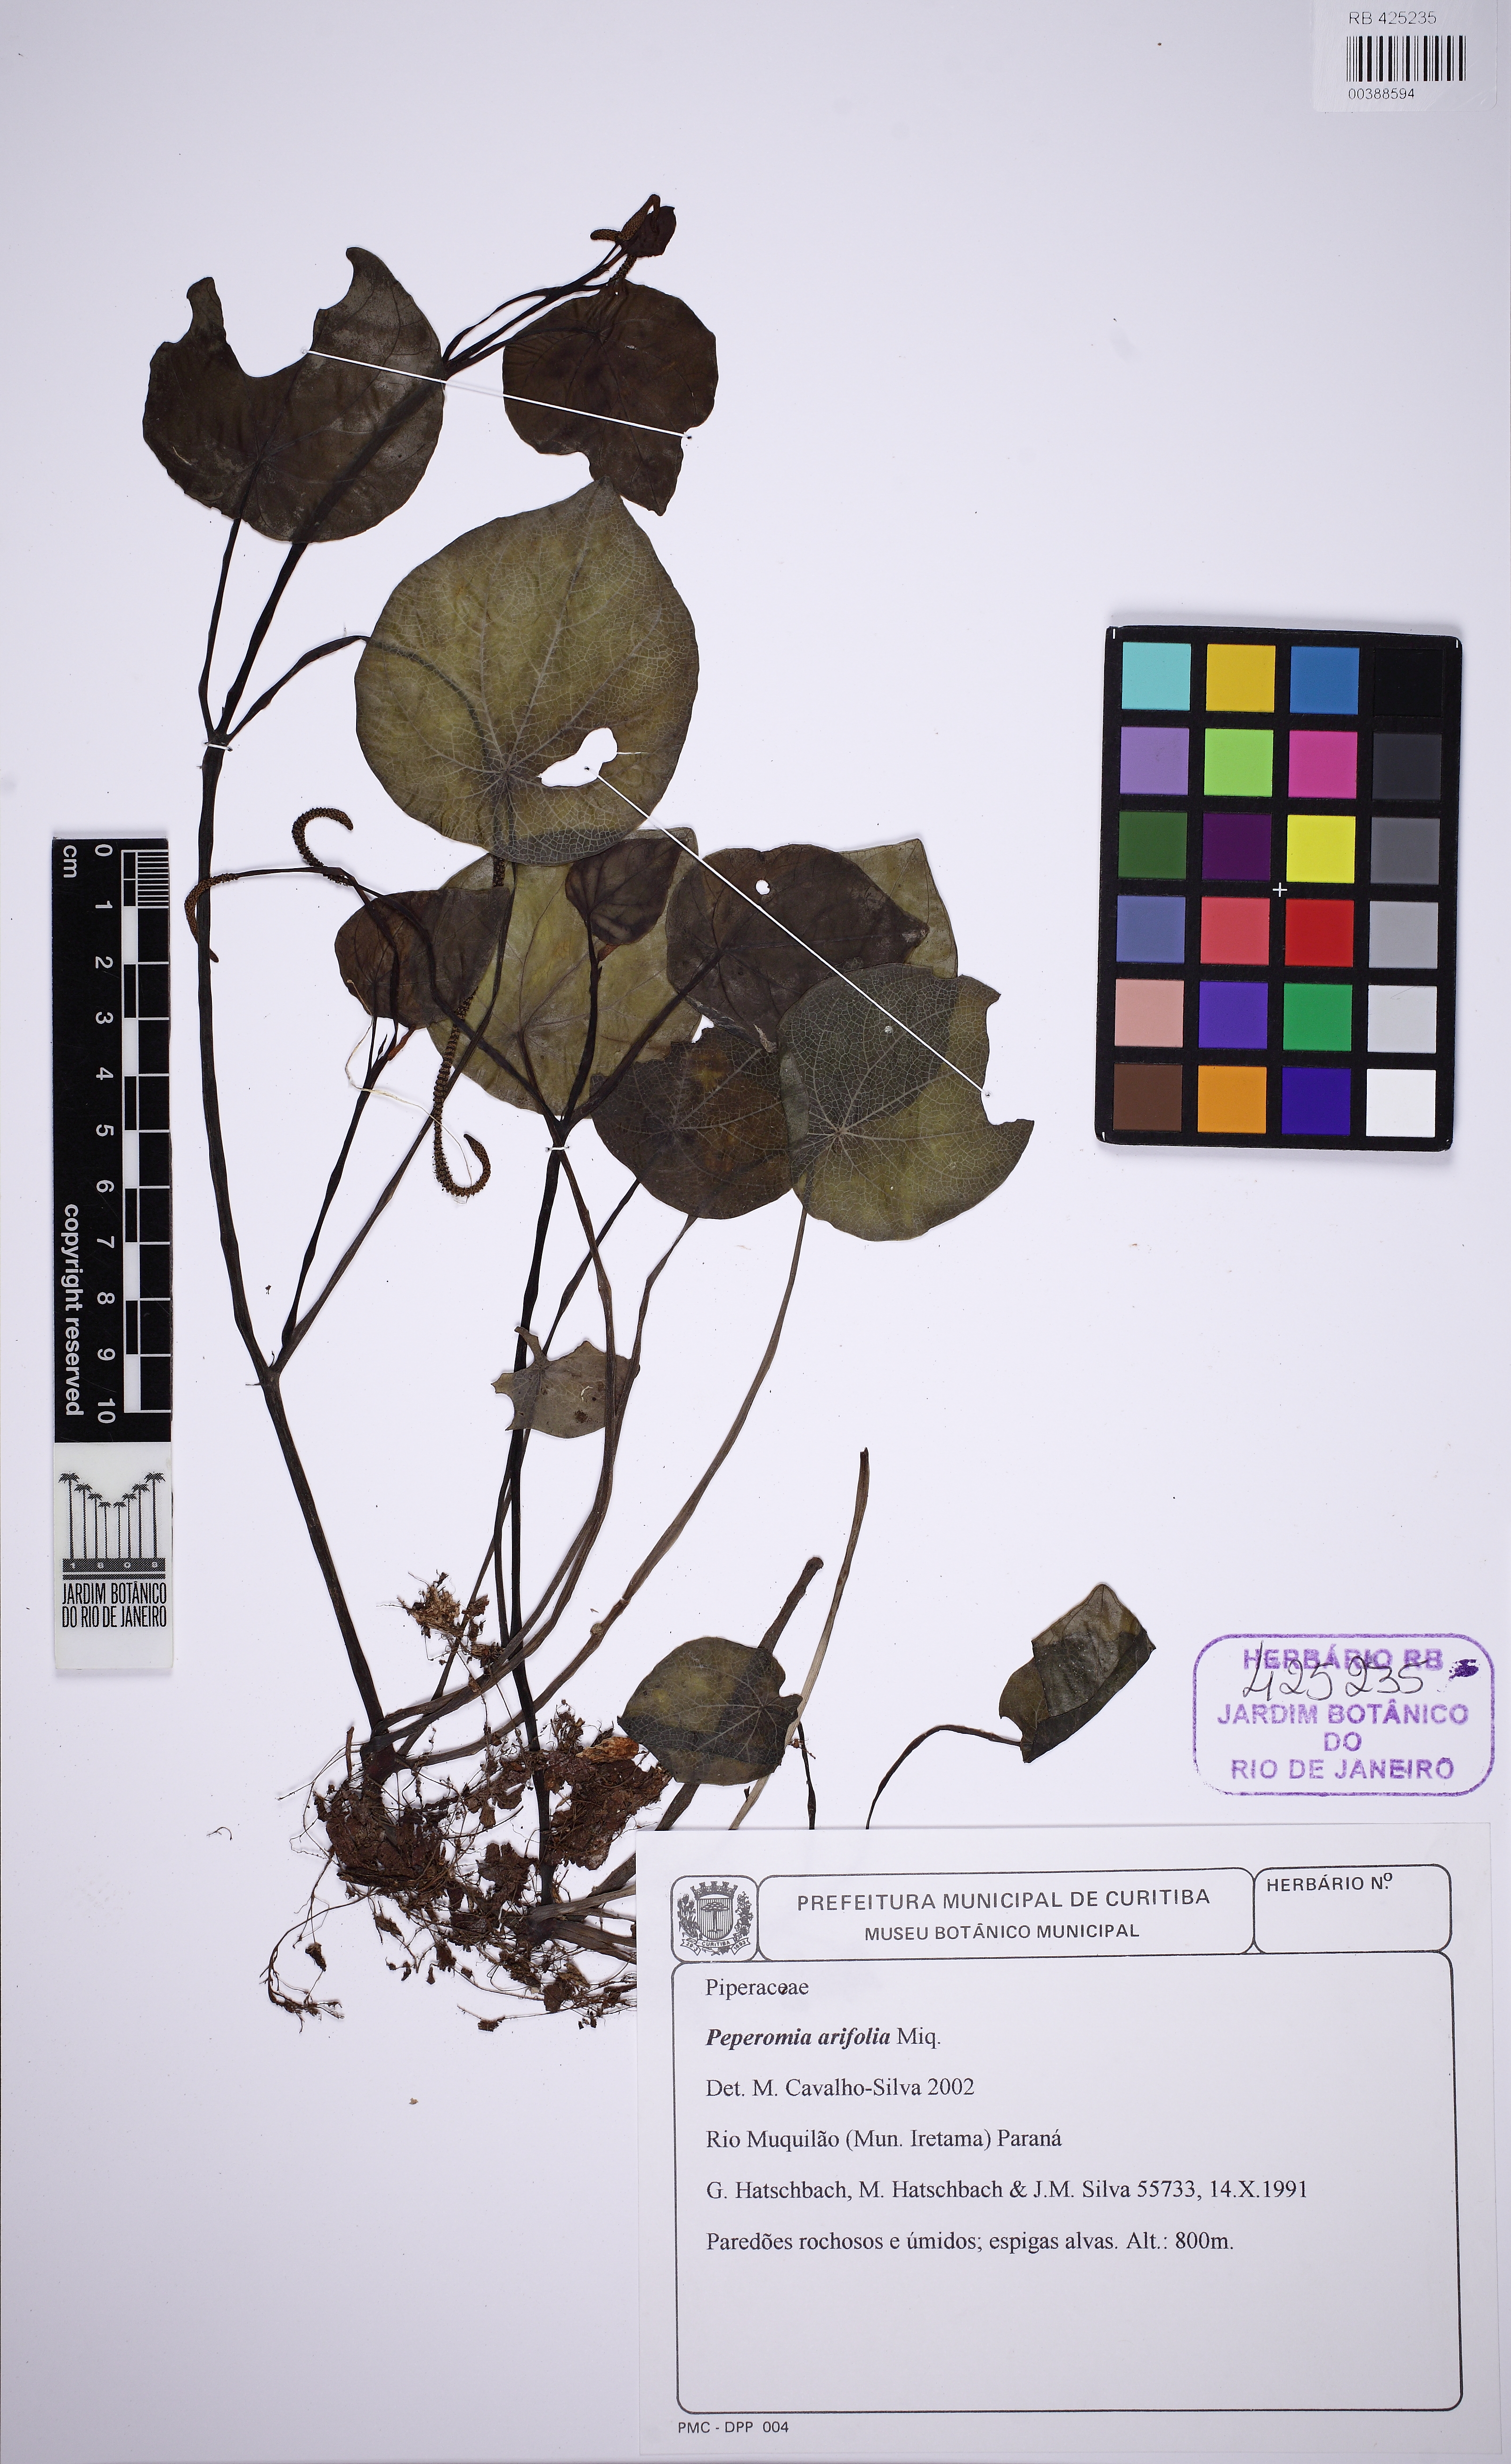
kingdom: Plantae
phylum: Tracheophyta
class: Magnoliopsida
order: Piperales
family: Piperaceae
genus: Peperomia
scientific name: Peperomia arifolia
